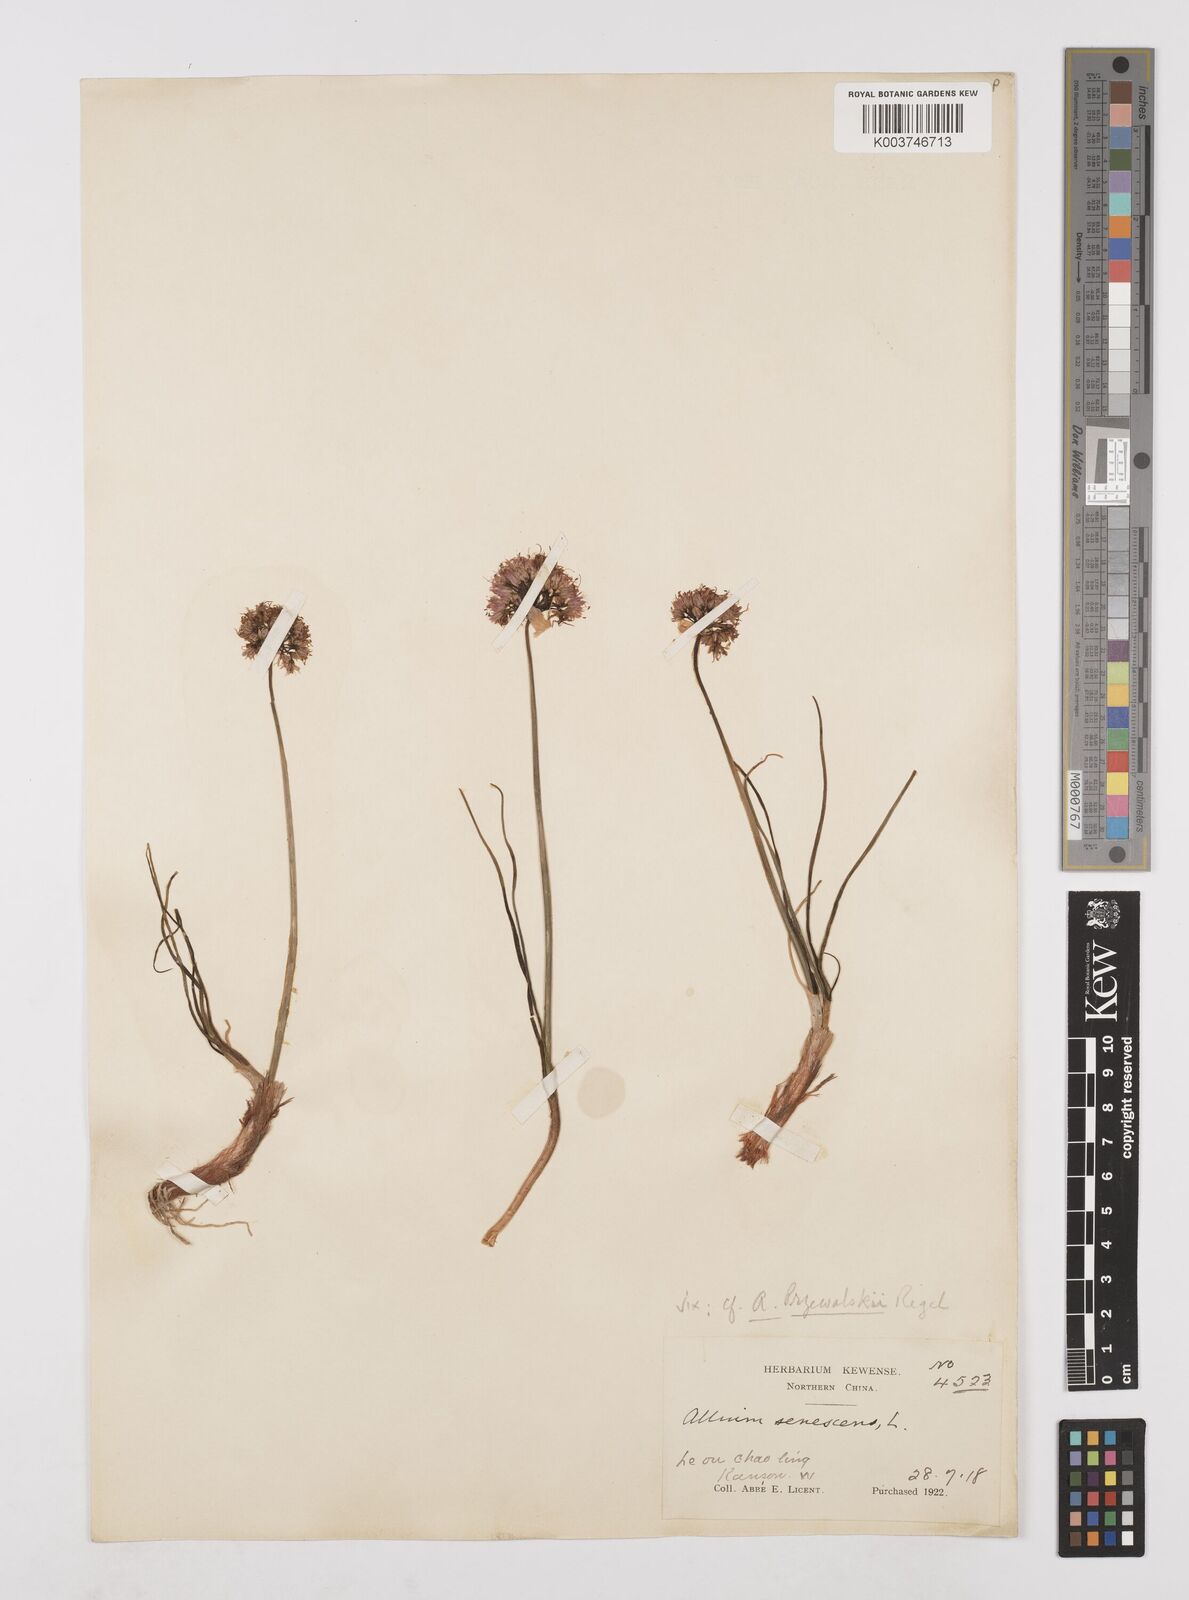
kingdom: Plantae
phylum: Tracheophyta
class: Liliopsida
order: Asparagales
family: Amaryllidaceae
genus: Allium
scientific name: Allium przewalskianum
